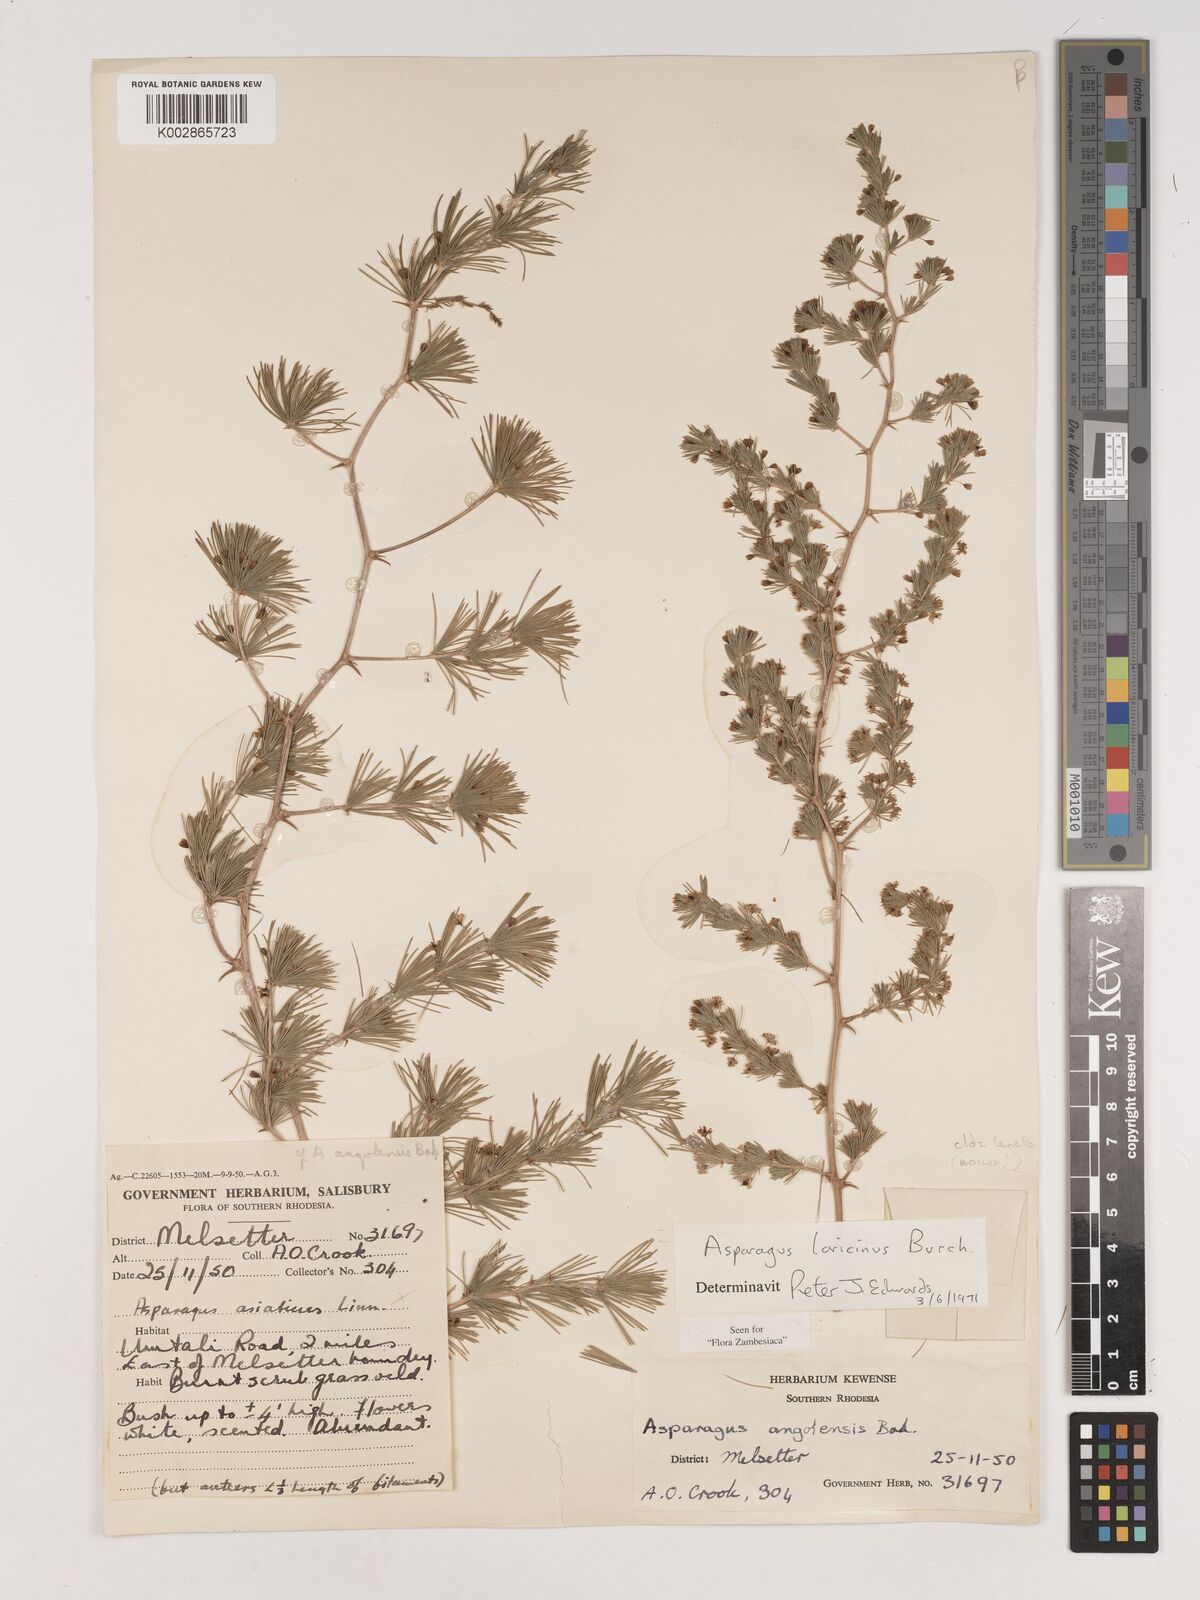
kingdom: Plantae
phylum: Tracheophyta
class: Liliopsida
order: Asparagales
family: Asparagaceae
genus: Asparagus
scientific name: Asparagus laricinus
